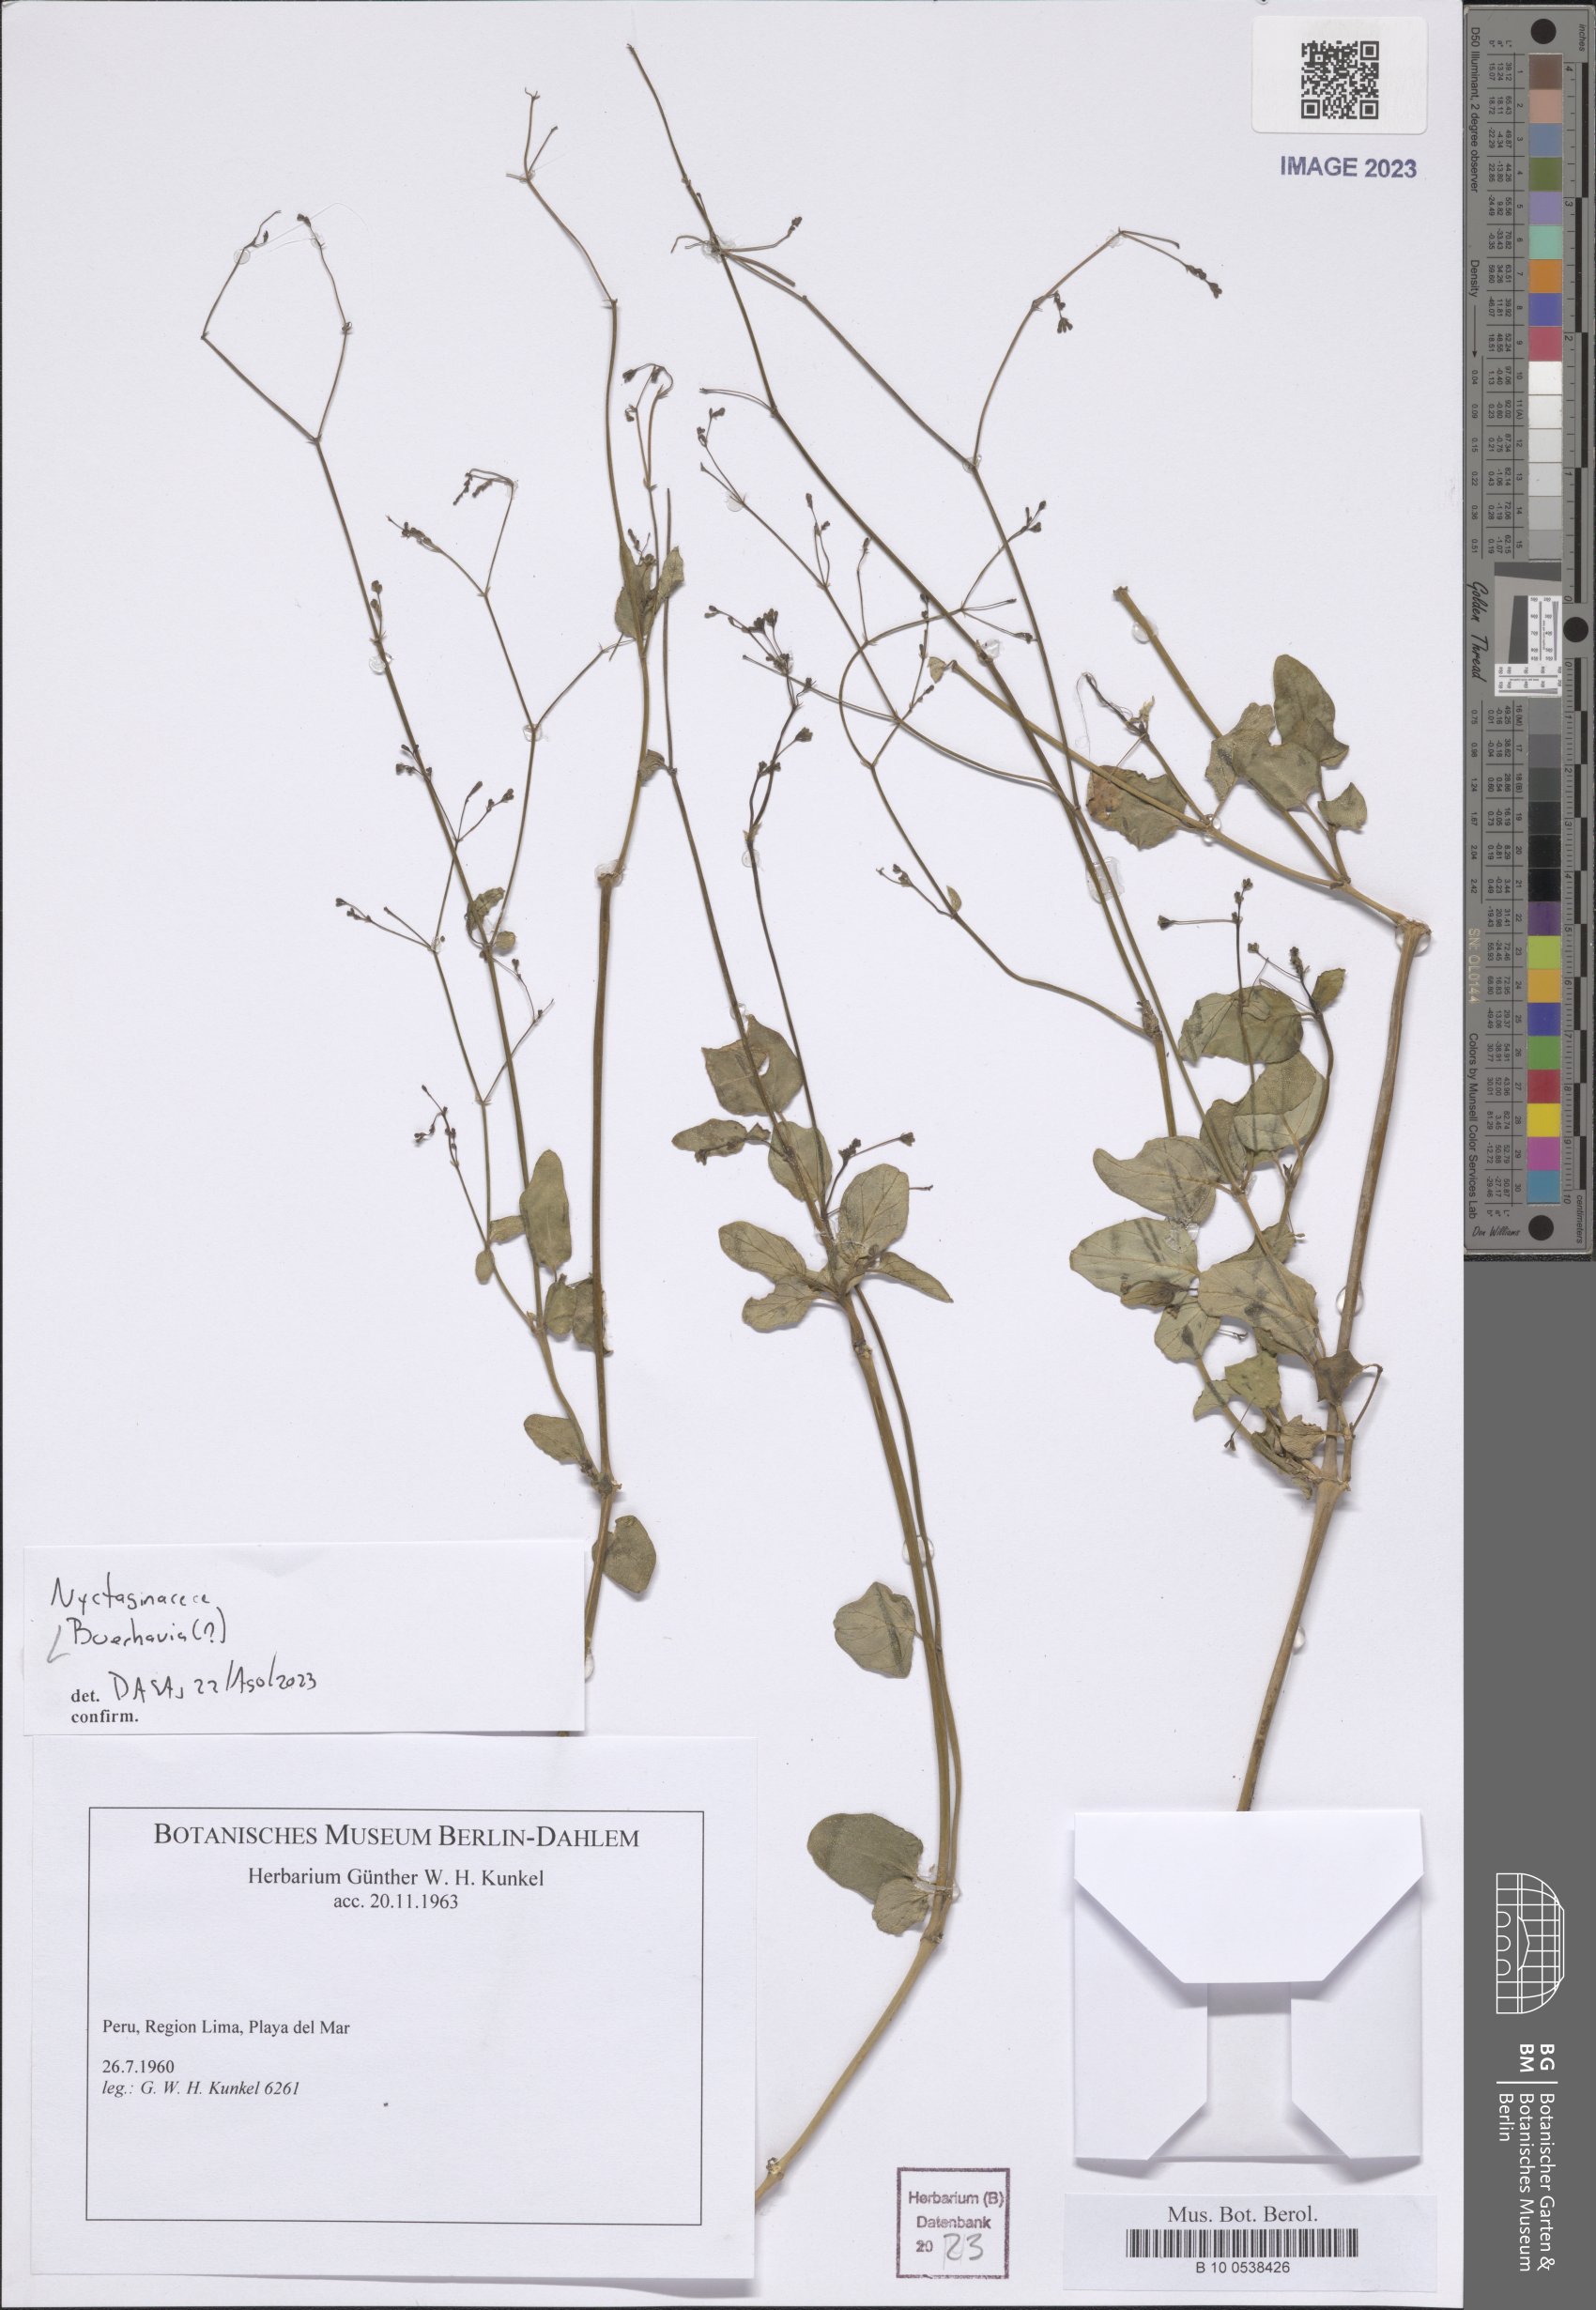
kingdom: Plantae
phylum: Tracheophyta
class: Magnoliopsida
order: Caryophyllales
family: Nyctaginaceae
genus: Boerhavia
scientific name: Boerhavia
